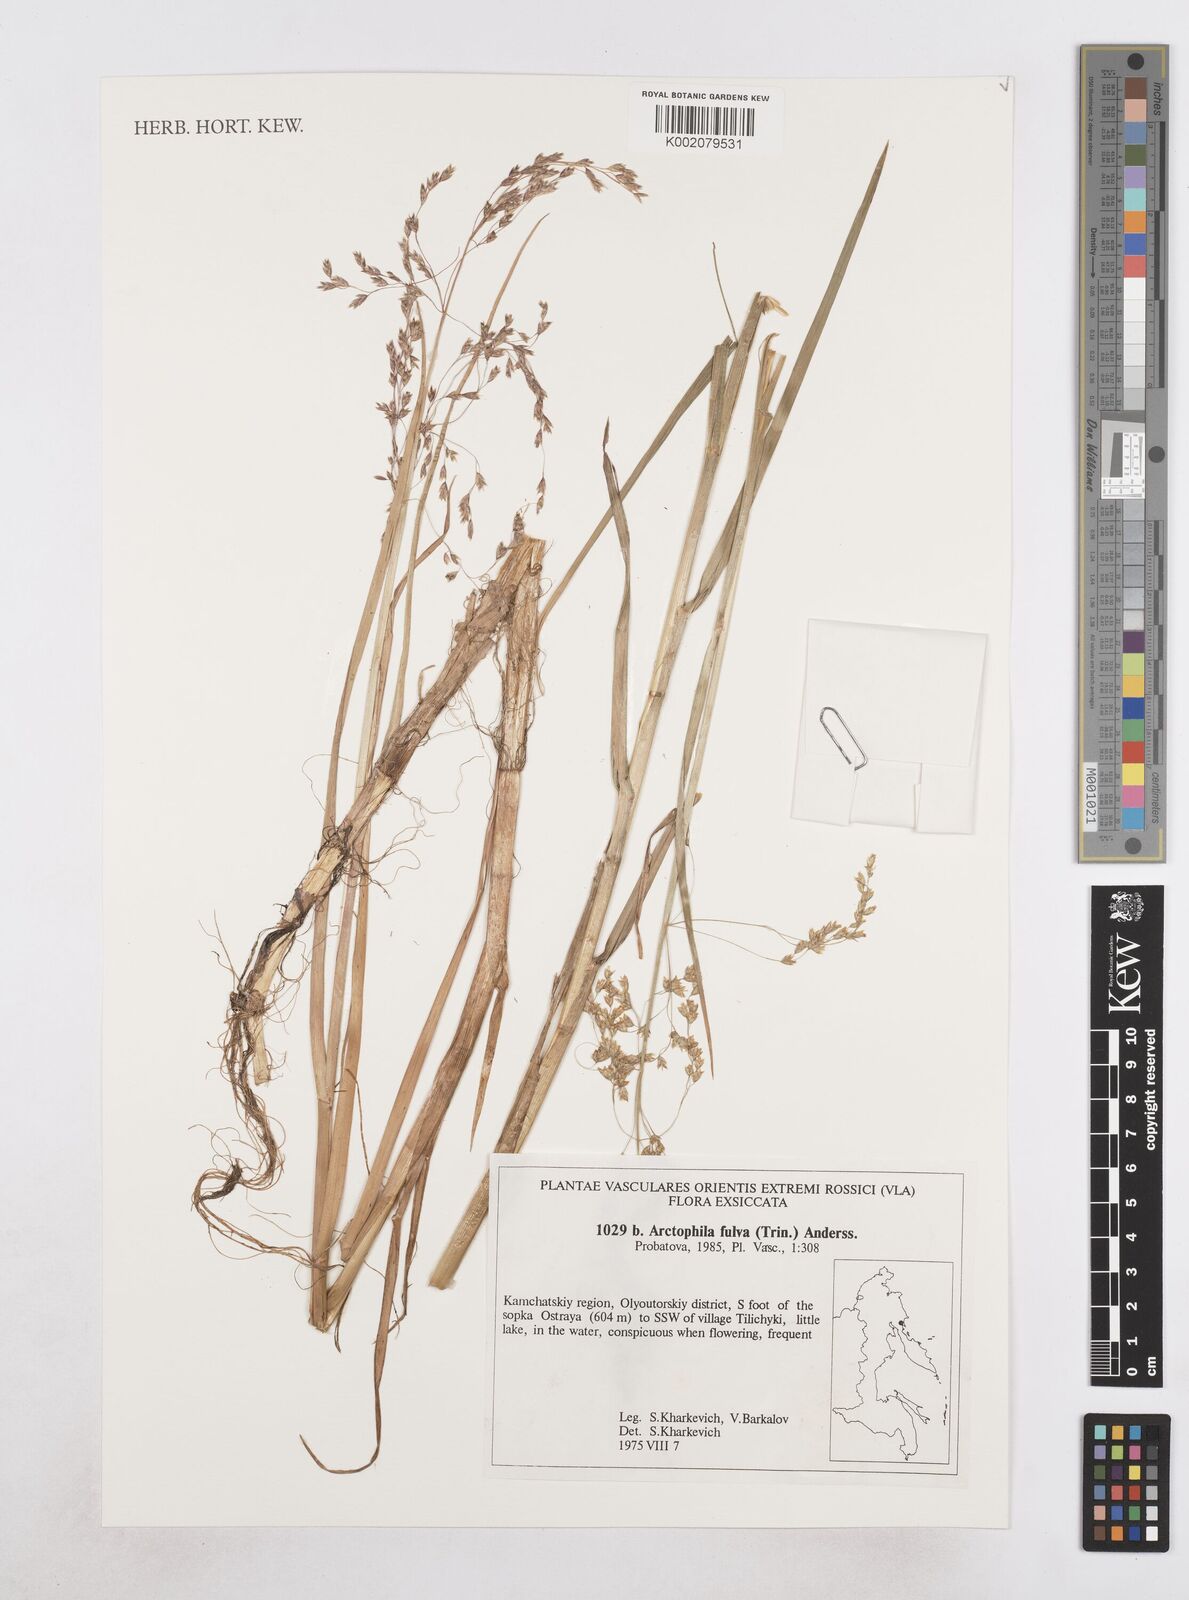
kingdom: Plantae
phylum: Tracheophyta
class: Liliopsida
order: Poales
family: Poaceae
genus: Dupontia
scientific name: Dupontia fulva
